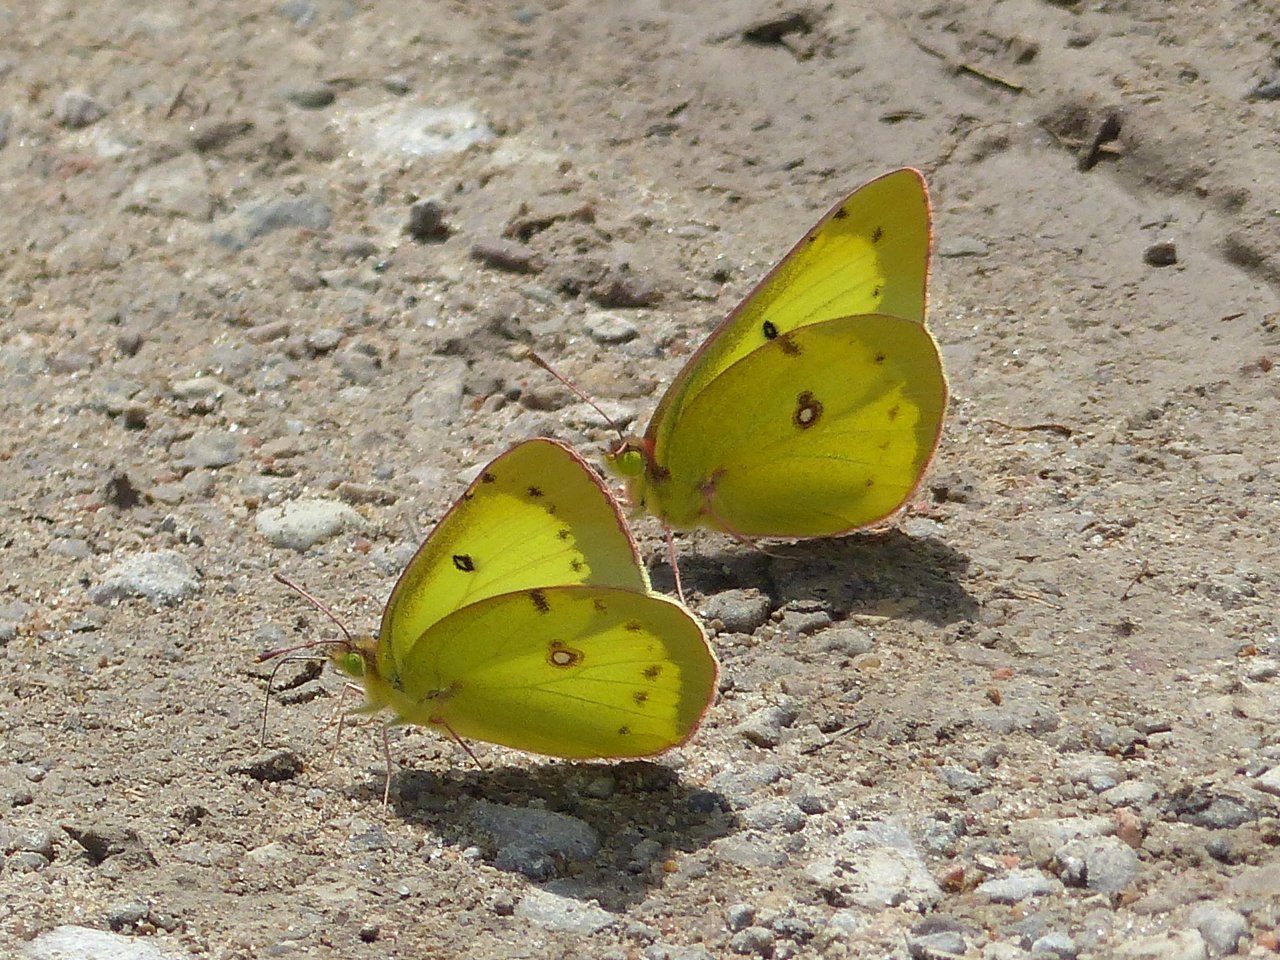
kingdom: Animalia
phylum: Arthropoda
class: Insecta
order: Lepidoptera
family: Pieridae
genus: Colias
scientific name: Colias philodice
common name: Clouded Sulphur
